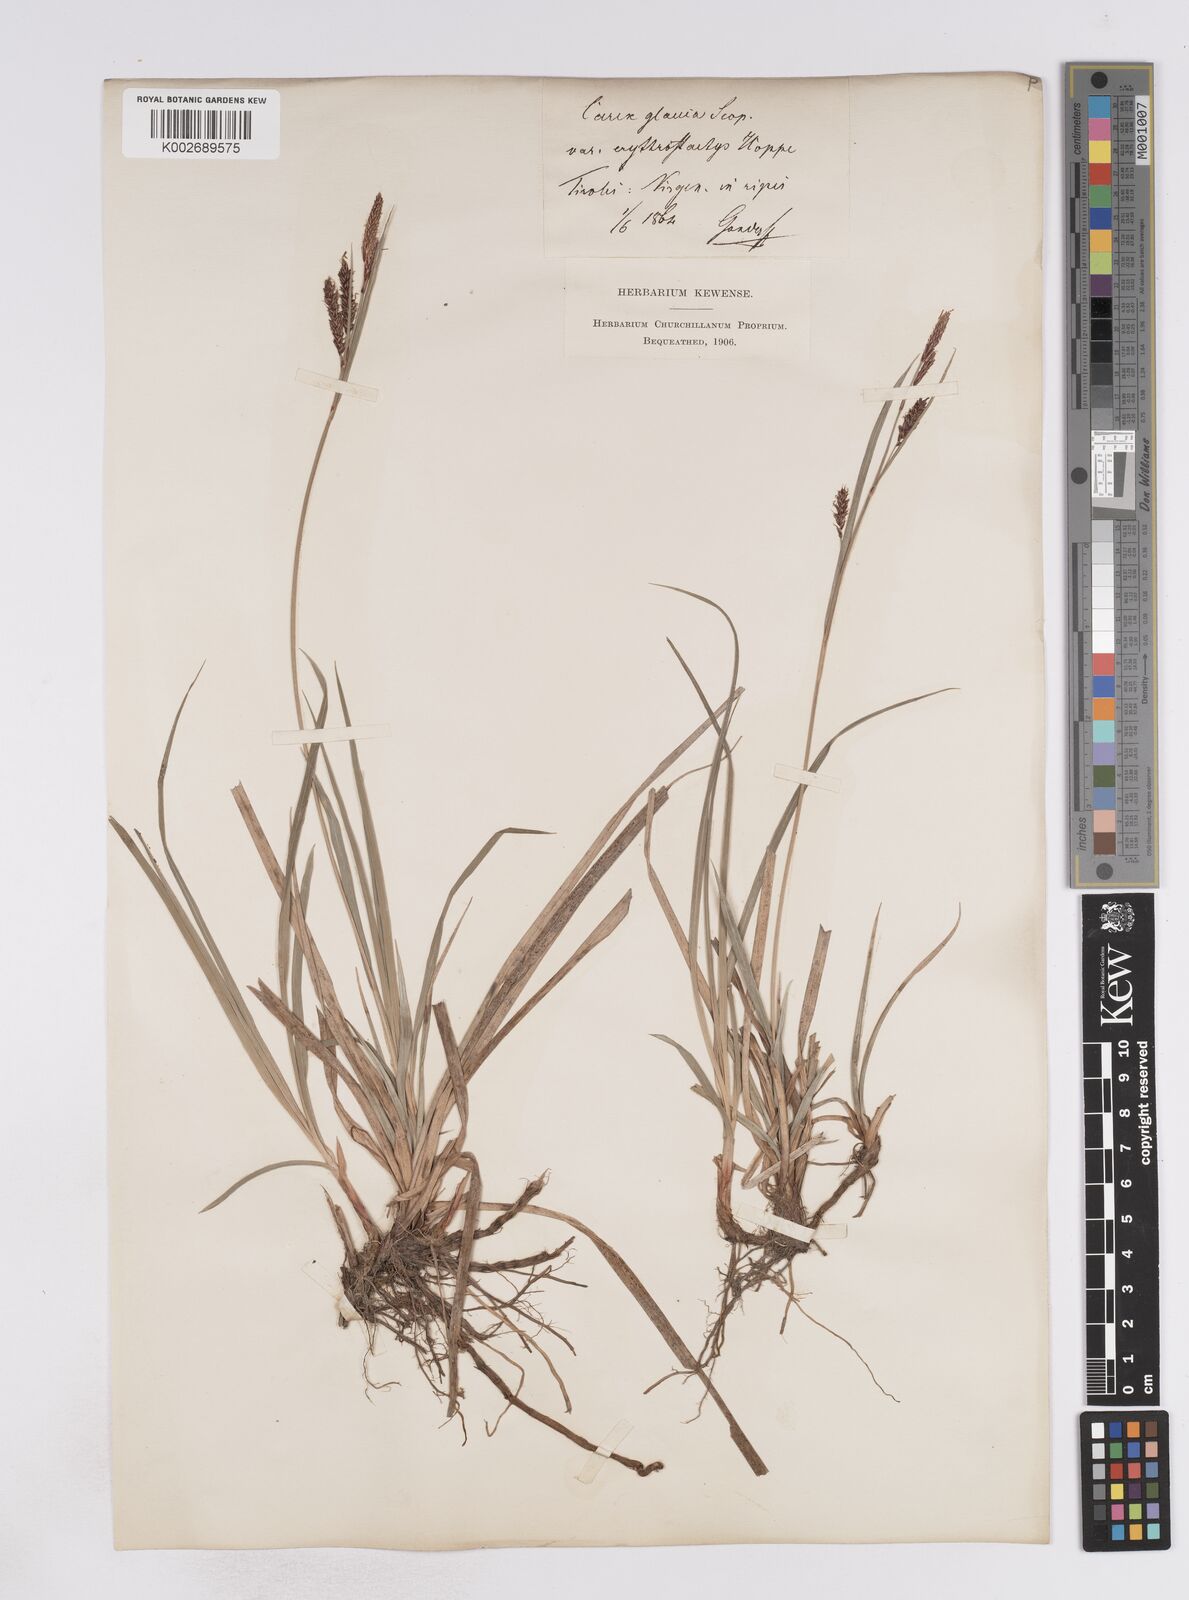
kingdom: Plantae
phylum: Tracheophyta
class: Liliopsida
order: Poales
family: Cyperaceae
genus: Carex
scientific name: Carex flacca
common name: Glaucous sedge
